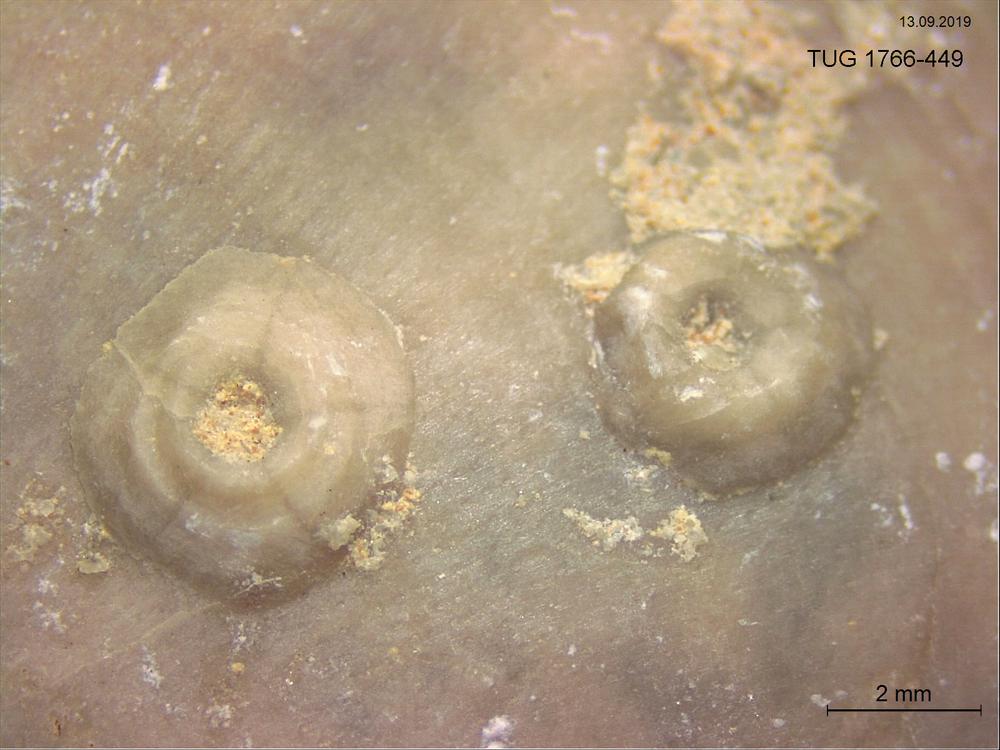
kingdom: Animalia
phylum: Echinodermata
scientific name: Echinodermata
